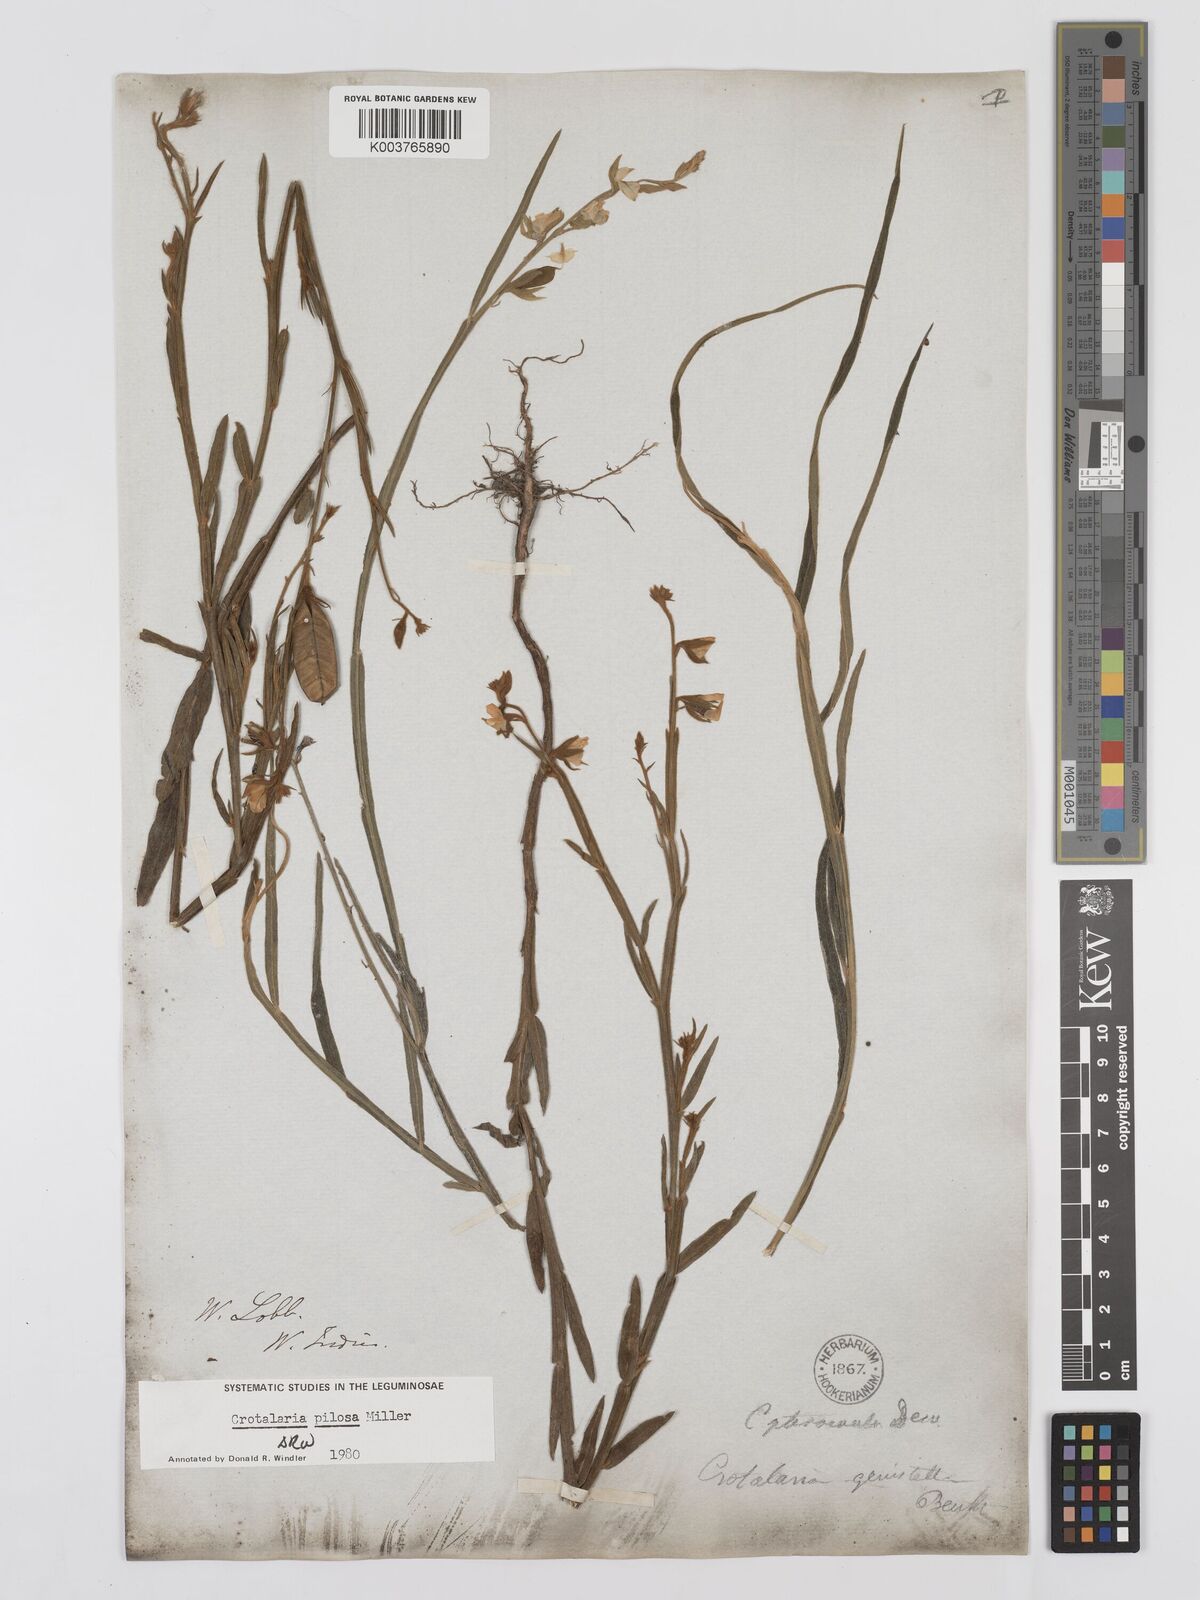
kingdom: Plantae
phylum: Tracheophyta
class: Magnoliopsida
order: Fabales
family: Fabaceae
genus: Crotalaria
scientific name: Crotalaria pilosa
